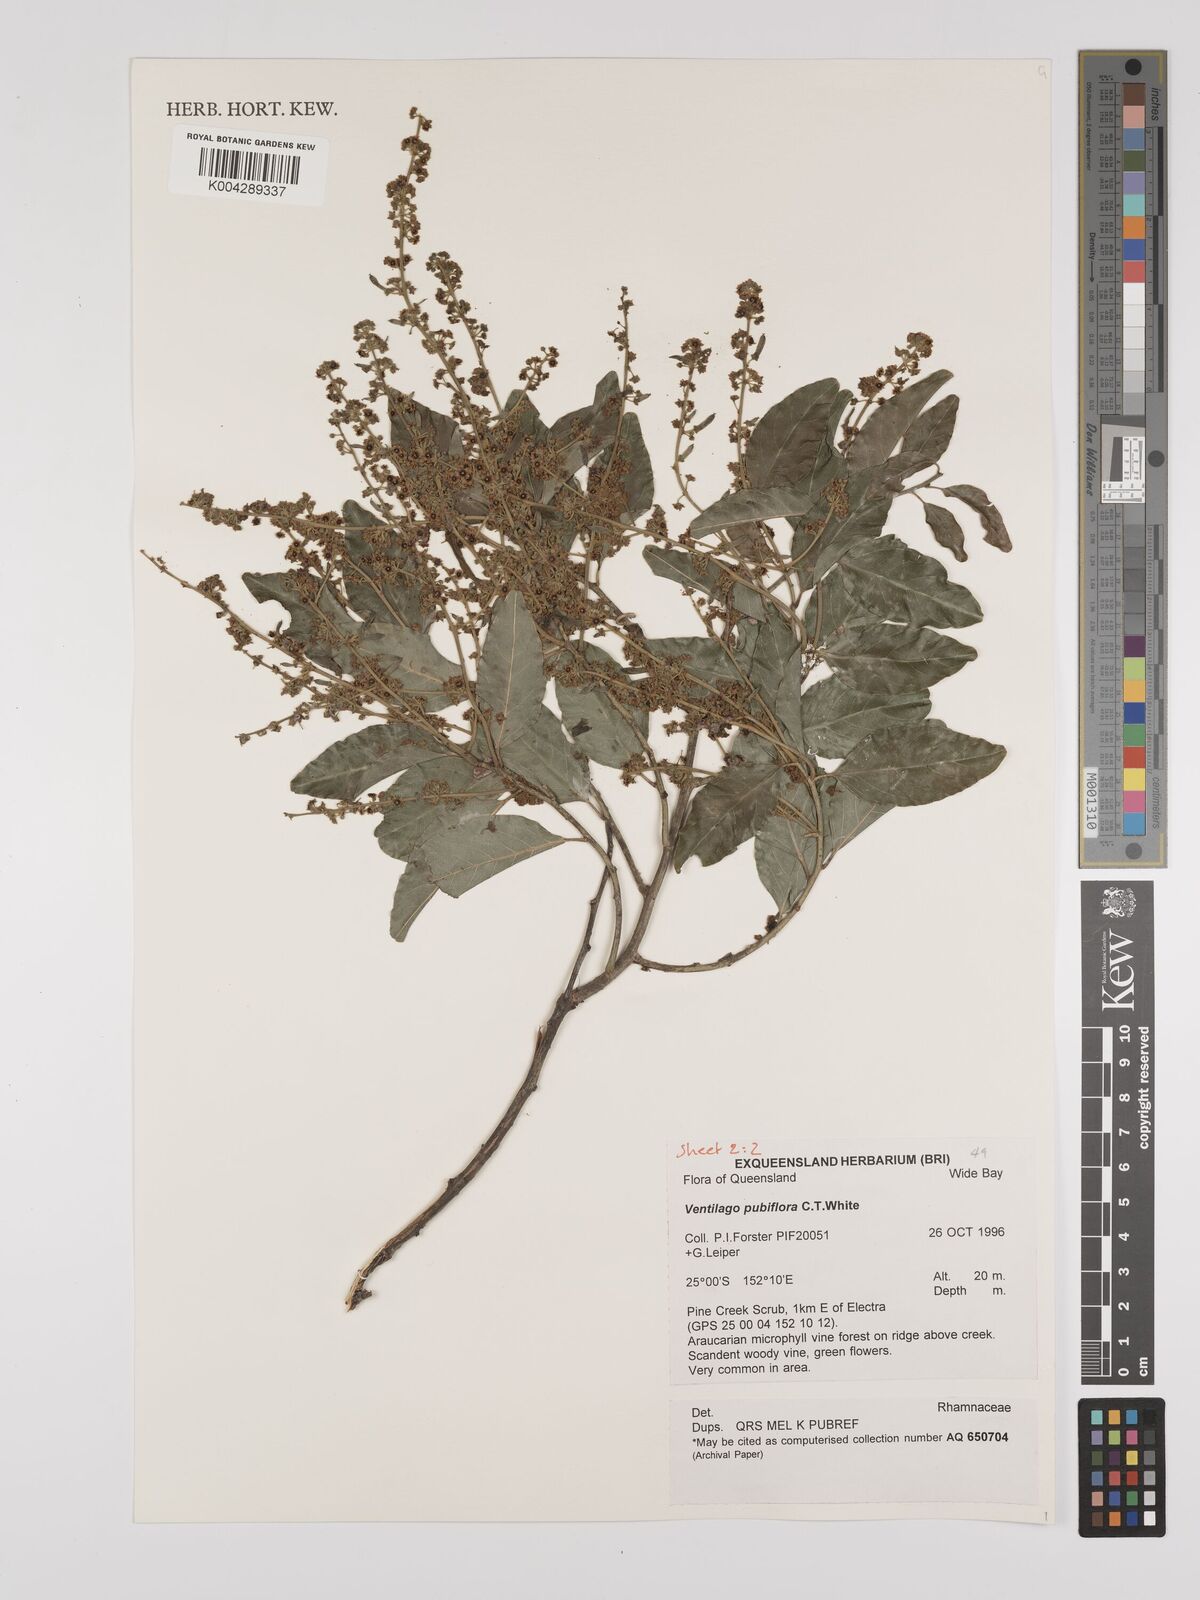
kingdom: Plantae
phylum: Tracheophyta
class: Magnoliopsida
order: Rosales
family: Rhamnaceae
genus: Ventilago
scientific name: Ventilago pubiflora
